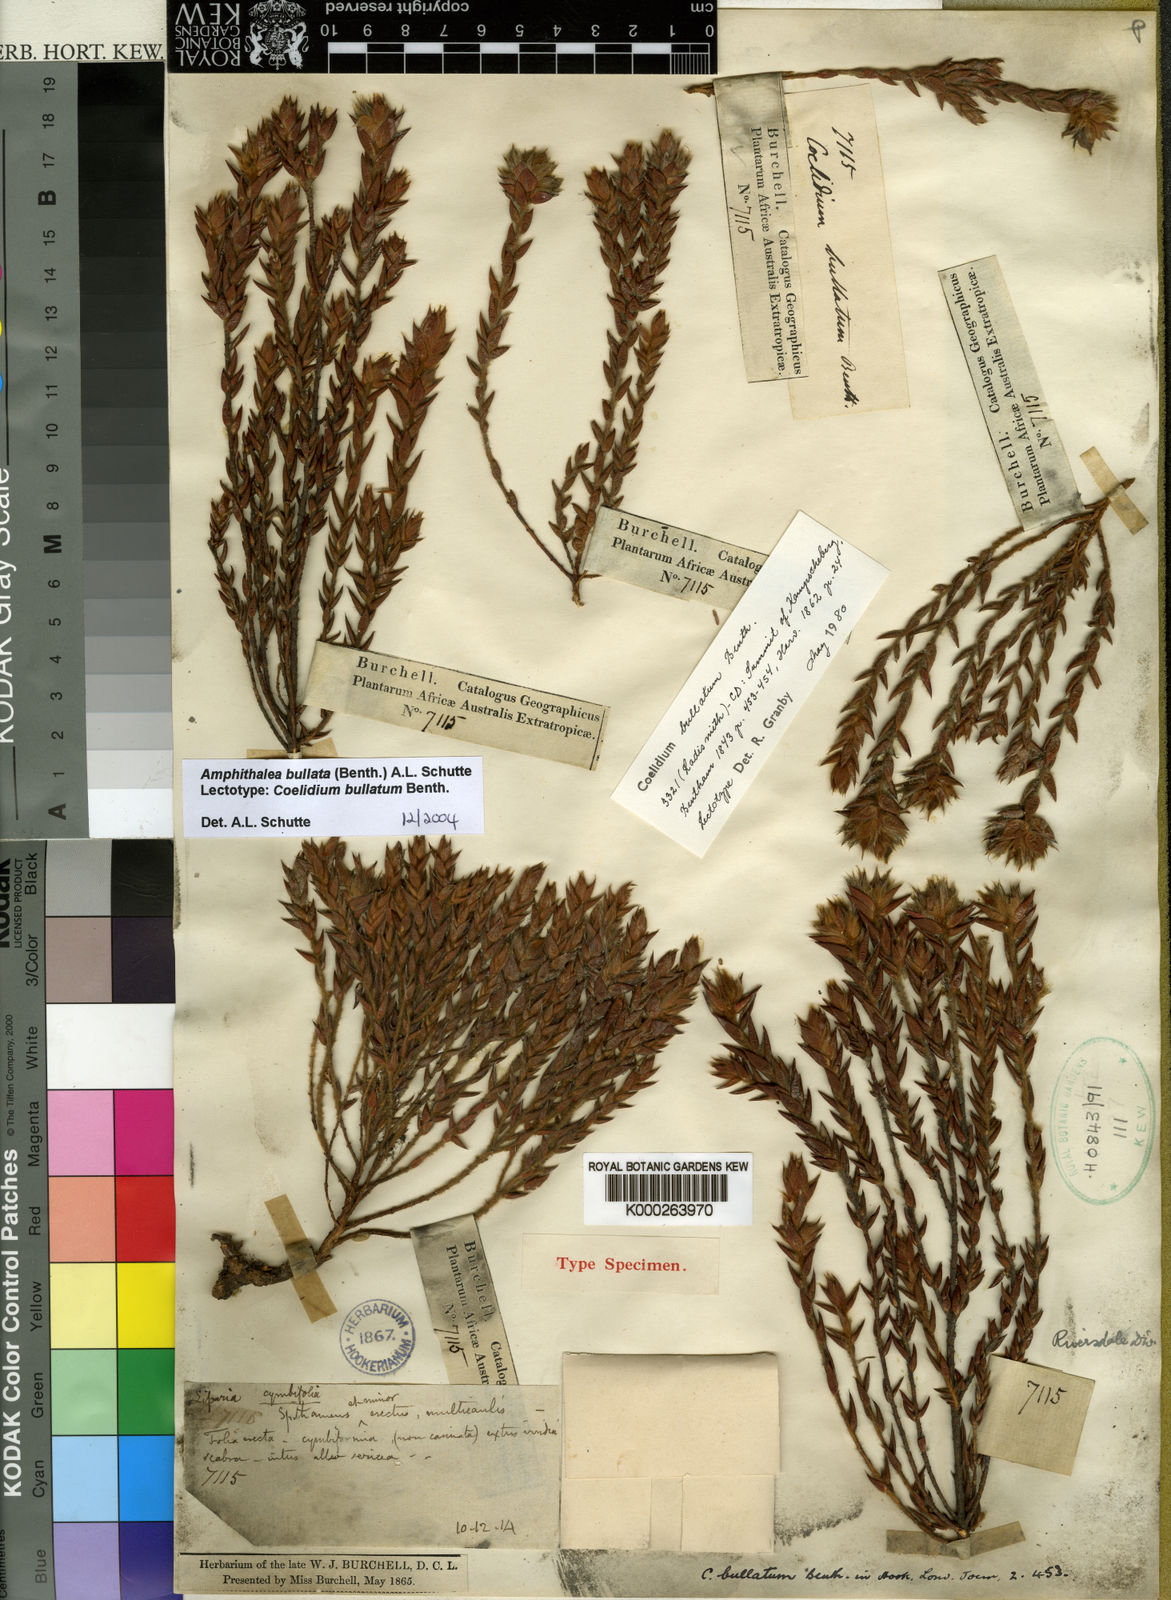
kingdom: Plantae
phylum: Tracheophyta
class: Magnoliopsida
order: Fabales
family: Fabaceae
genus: Amphithalea
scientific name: Amphithalea bullata
